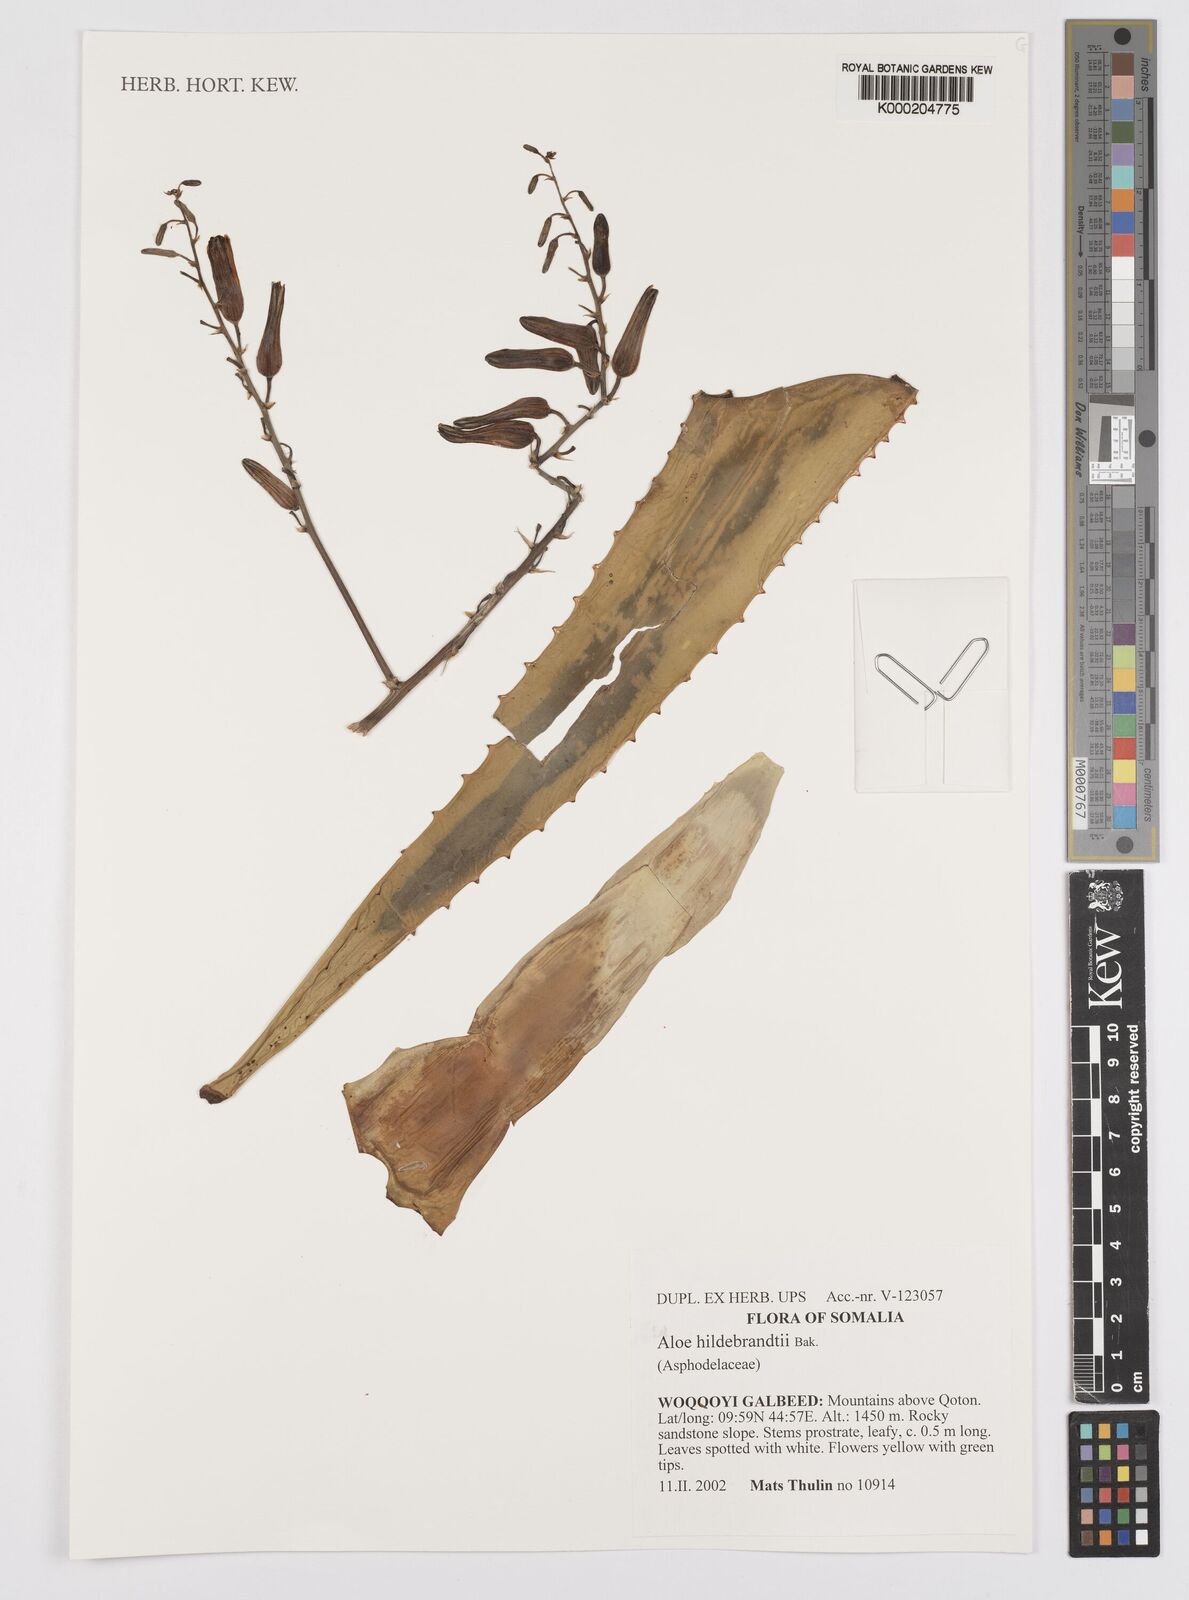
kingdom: Plantae
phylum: Tracheophyta
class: Liliopsida
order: Asparagales
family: Asphodelaceae
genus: Aloe
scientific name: Aloe hildebrandtii
